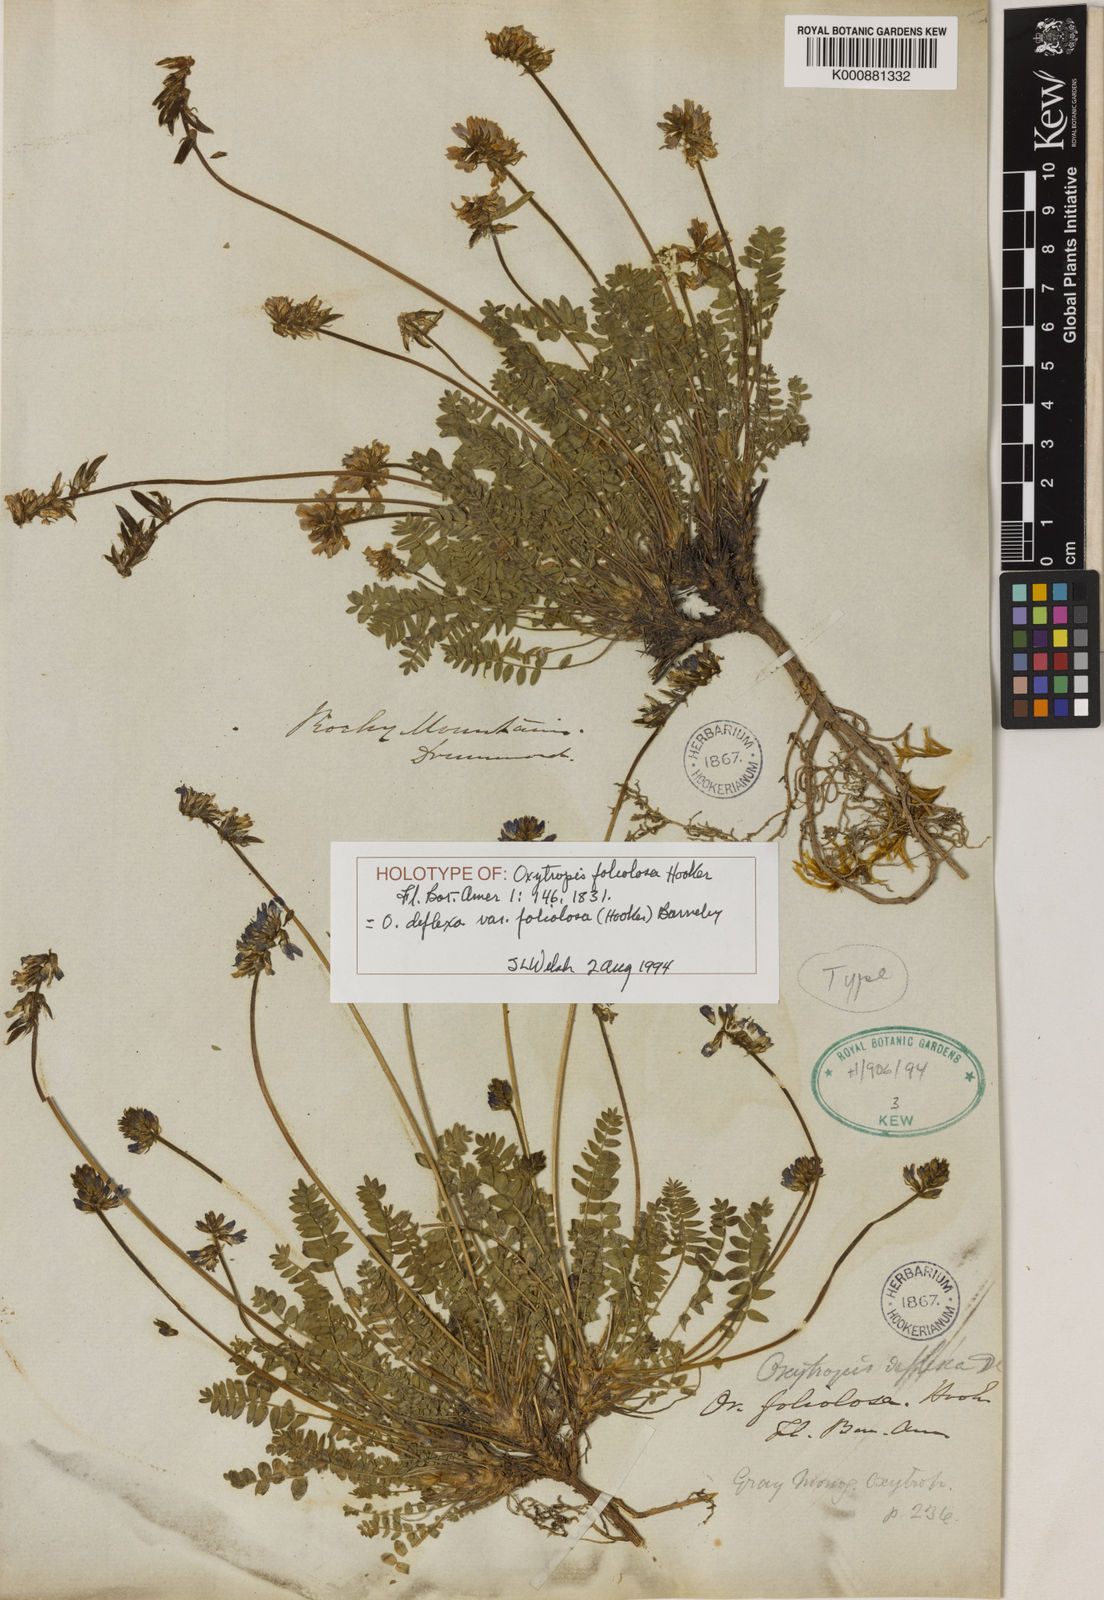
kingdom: Plantae
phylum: Tracheophyta
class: Magnoliopsida
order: Fabales
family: Fabaceae
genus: Oxytropis
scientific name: Oxytropis deflexa
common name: Stemmed oxytrope
